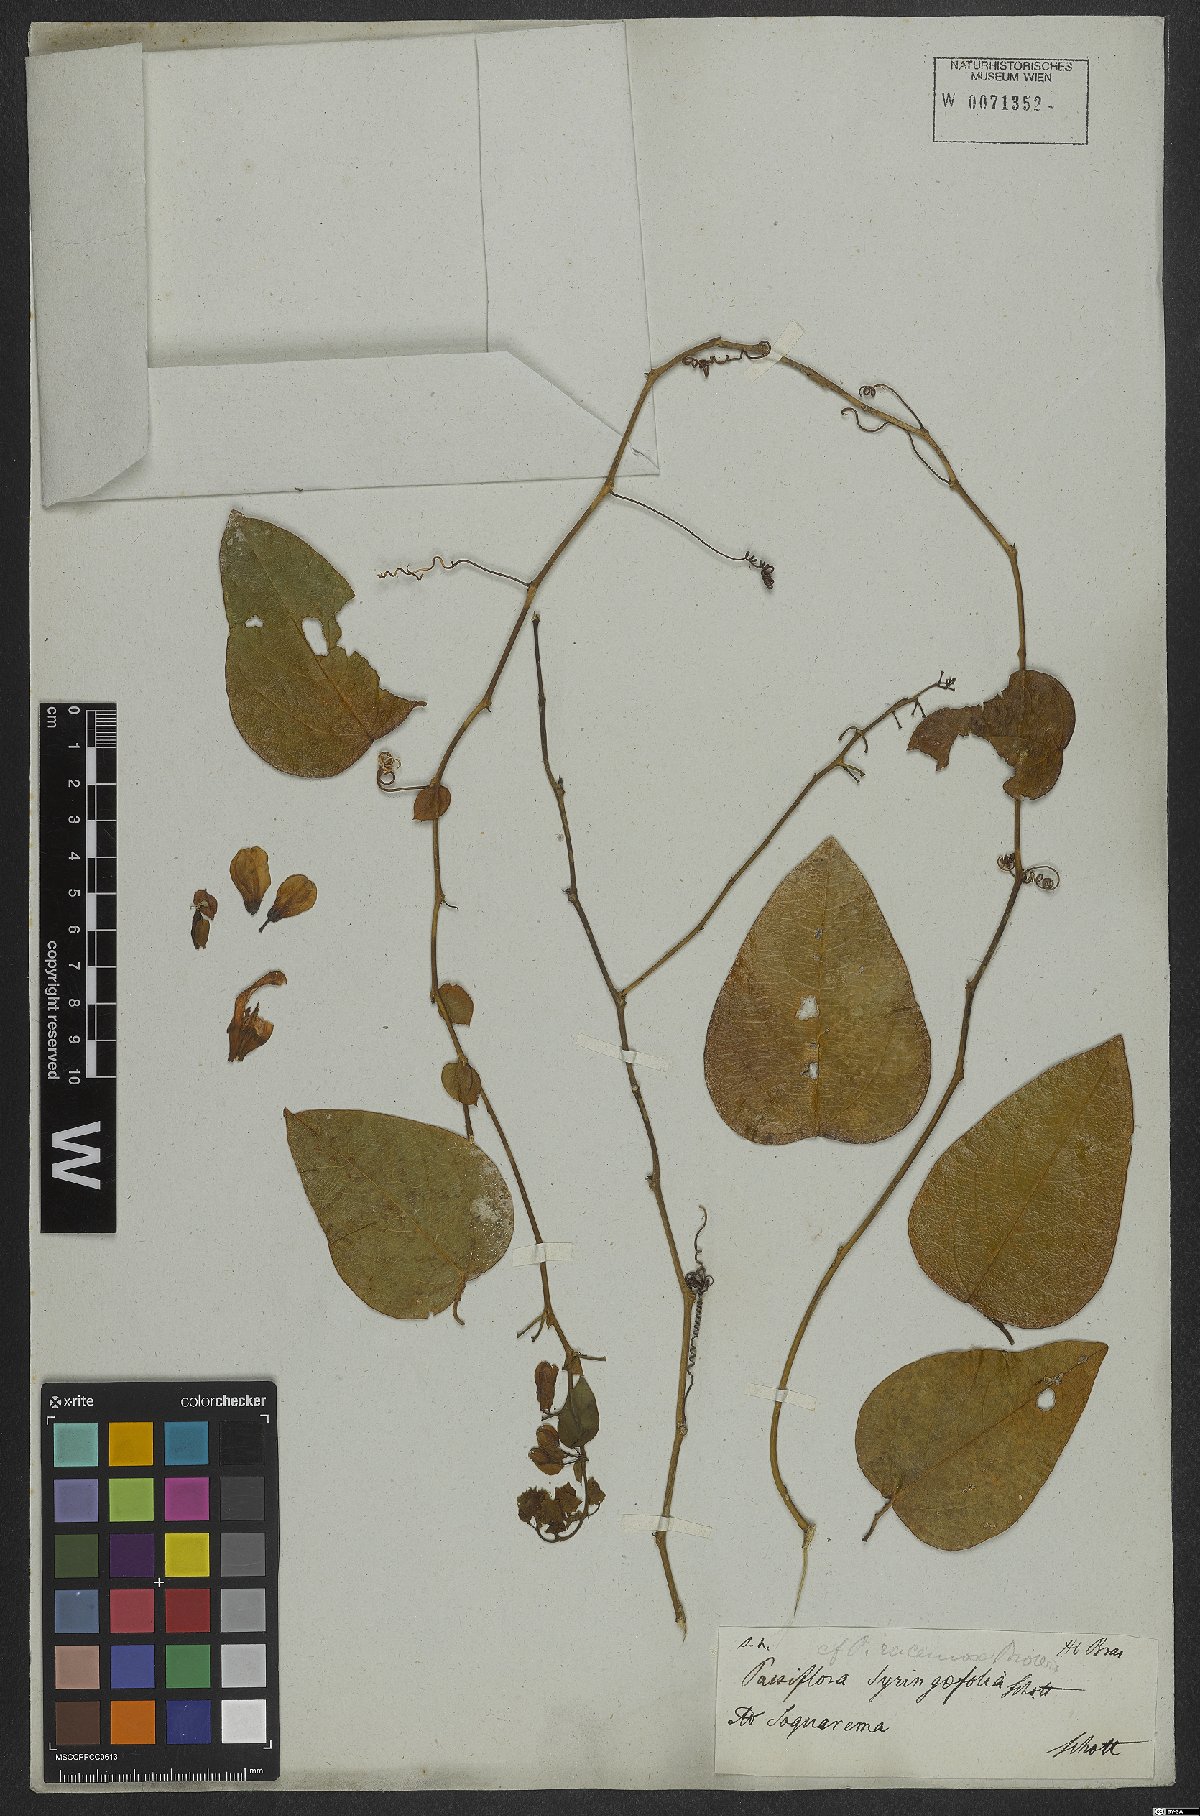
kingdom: Plantae
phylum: Tracheophyta
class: Magnoliopsida
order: Malpighiales
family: Passifloraceae
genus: Passiflora
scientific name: Passiflora racemosa
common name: Red passionflower
